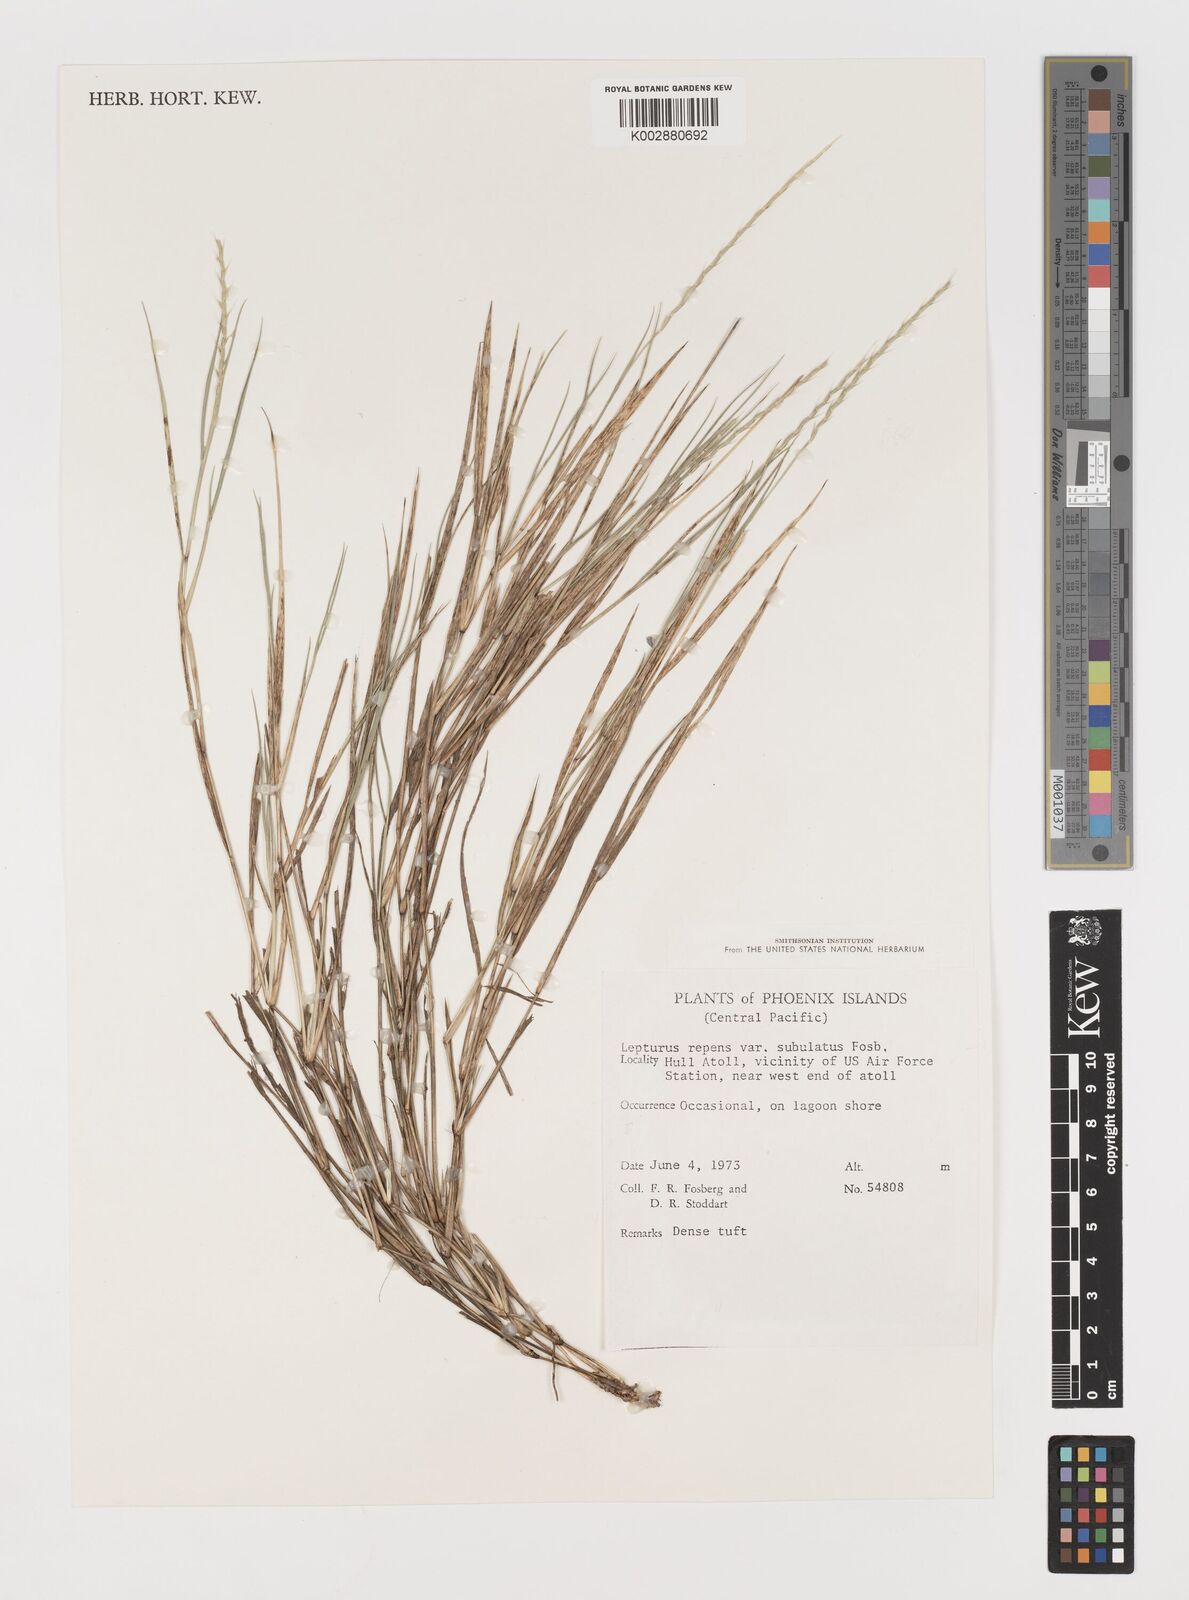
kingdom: Plantae
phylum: Tracheophyta
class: Liliopsida
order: Poales
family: Poaceae
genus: Lepturus
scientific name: Lepturus repens
